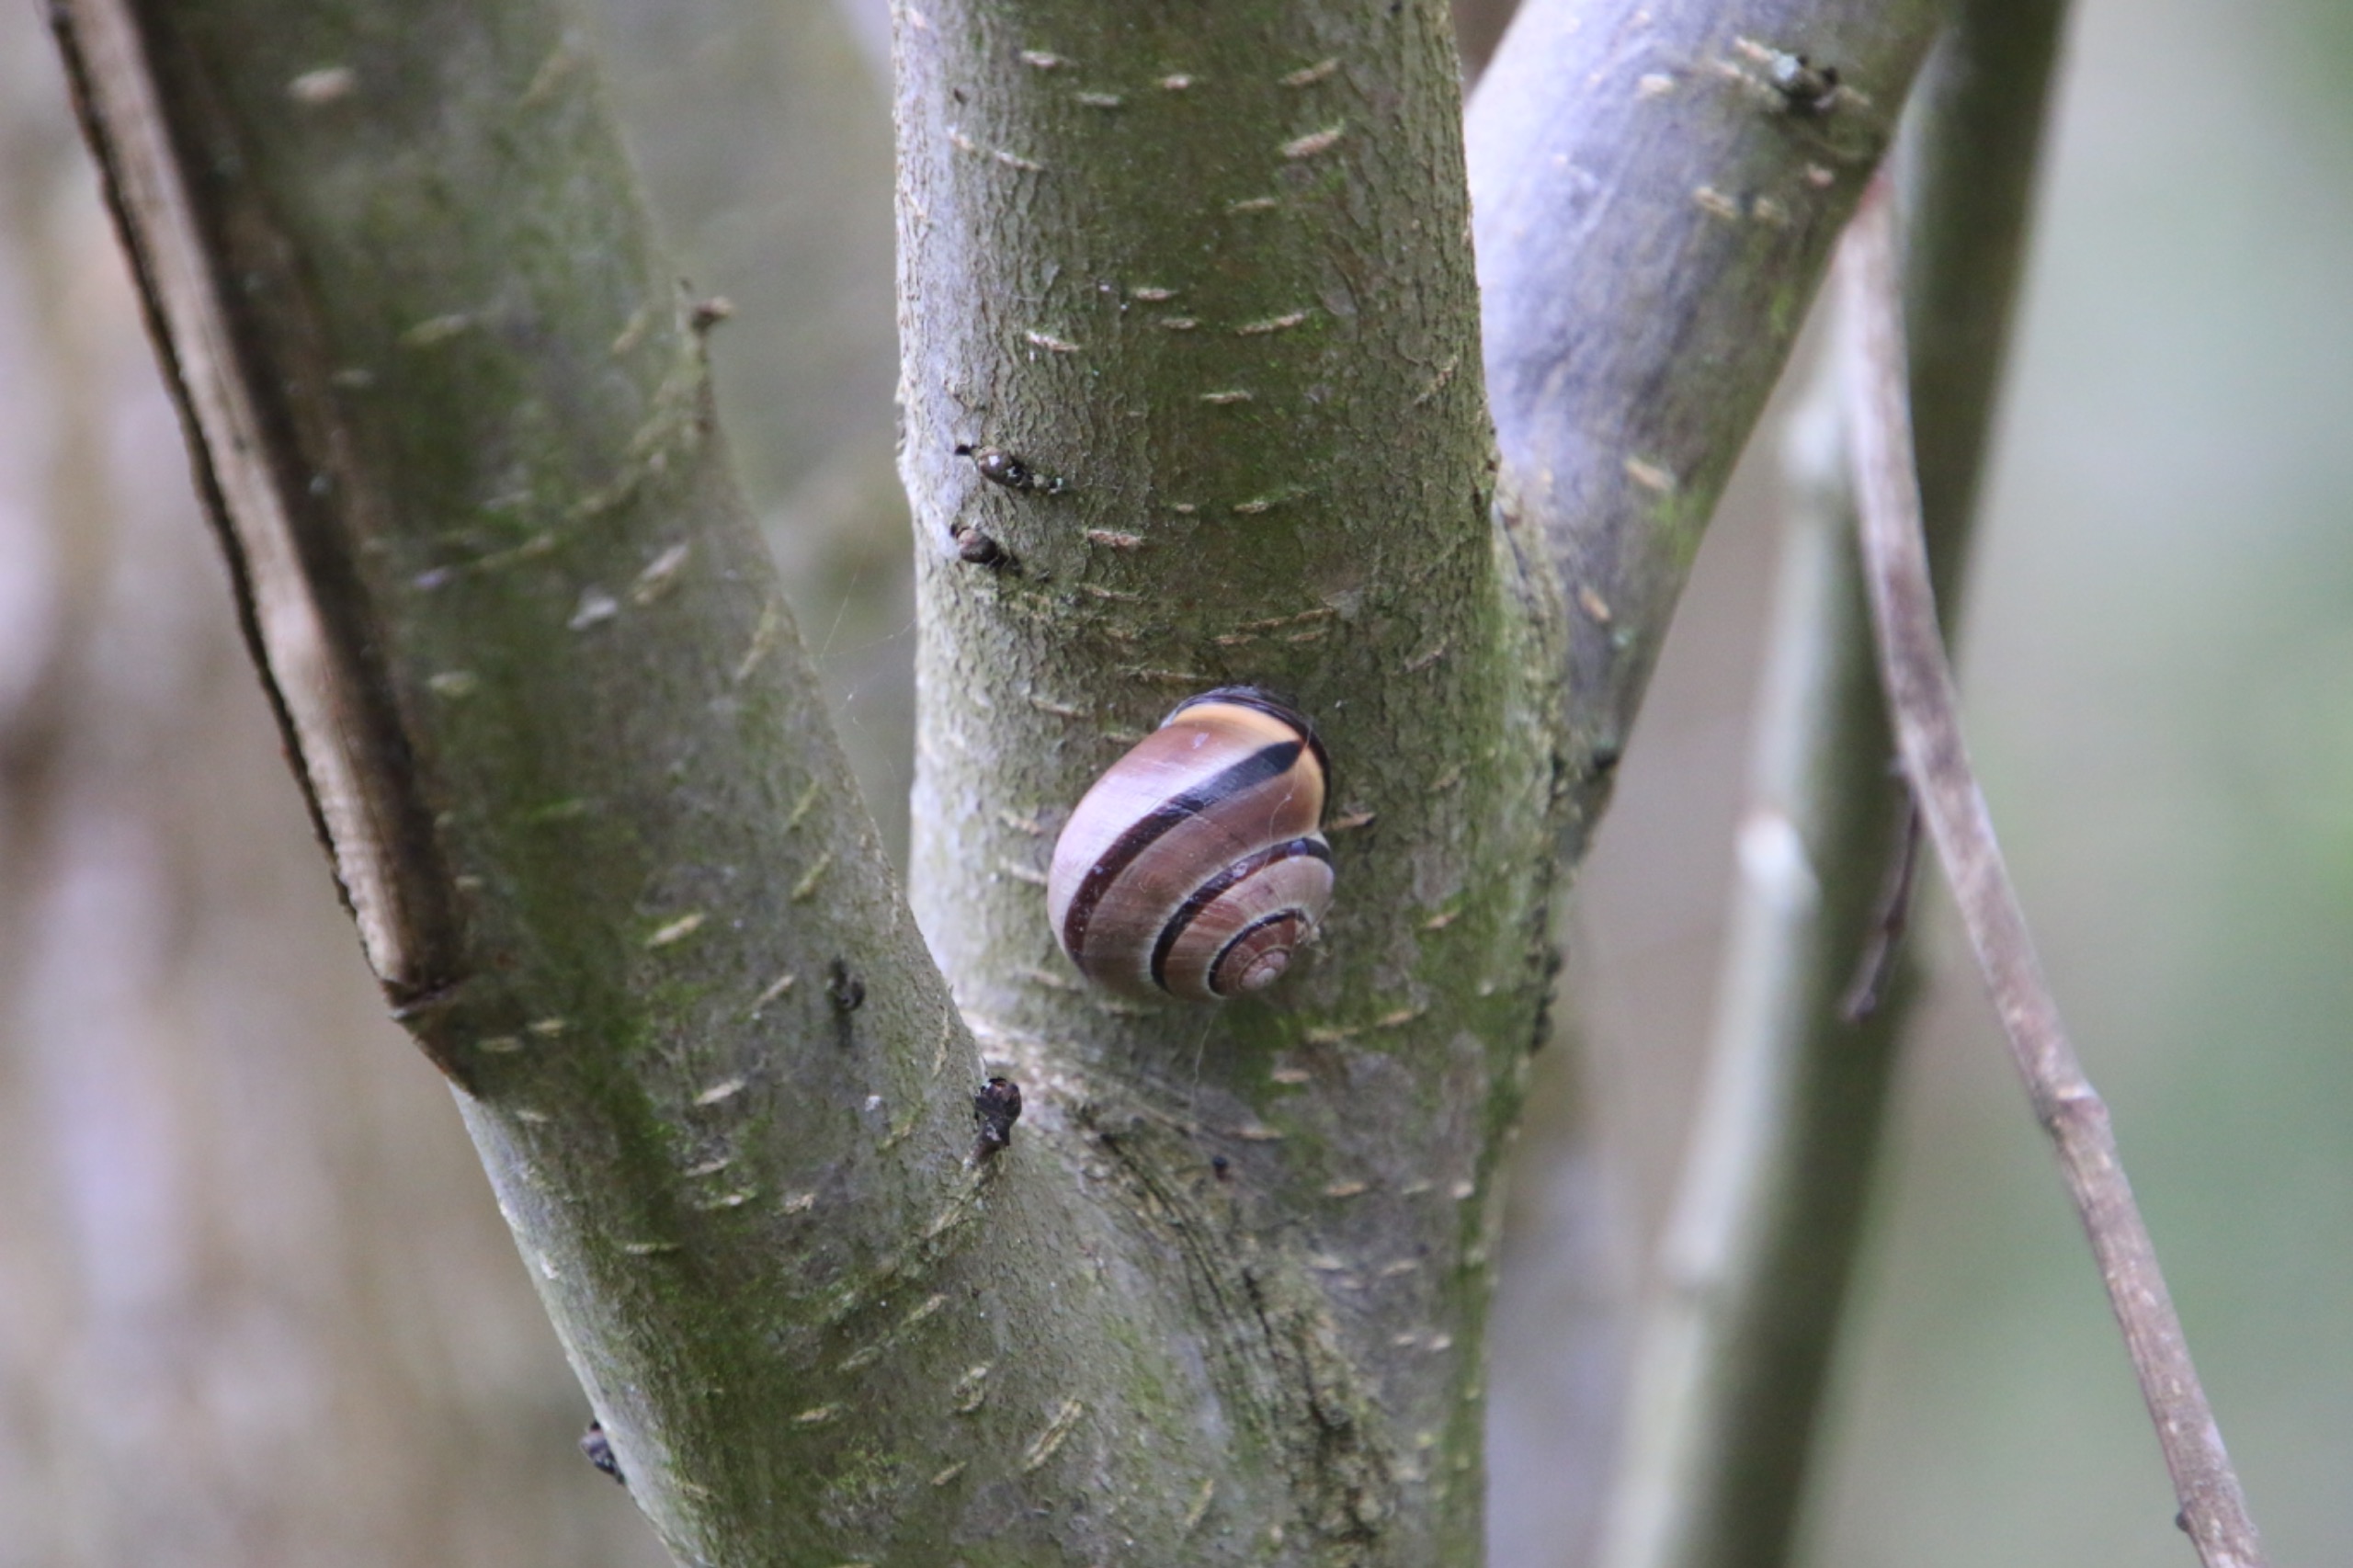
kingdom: Animalia
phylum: Mollusca
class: Gastropoda
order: Stylommatophora
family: Helicidae
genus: Cepaea
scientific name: Cepaea nemoralis
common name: Lundsnegl
